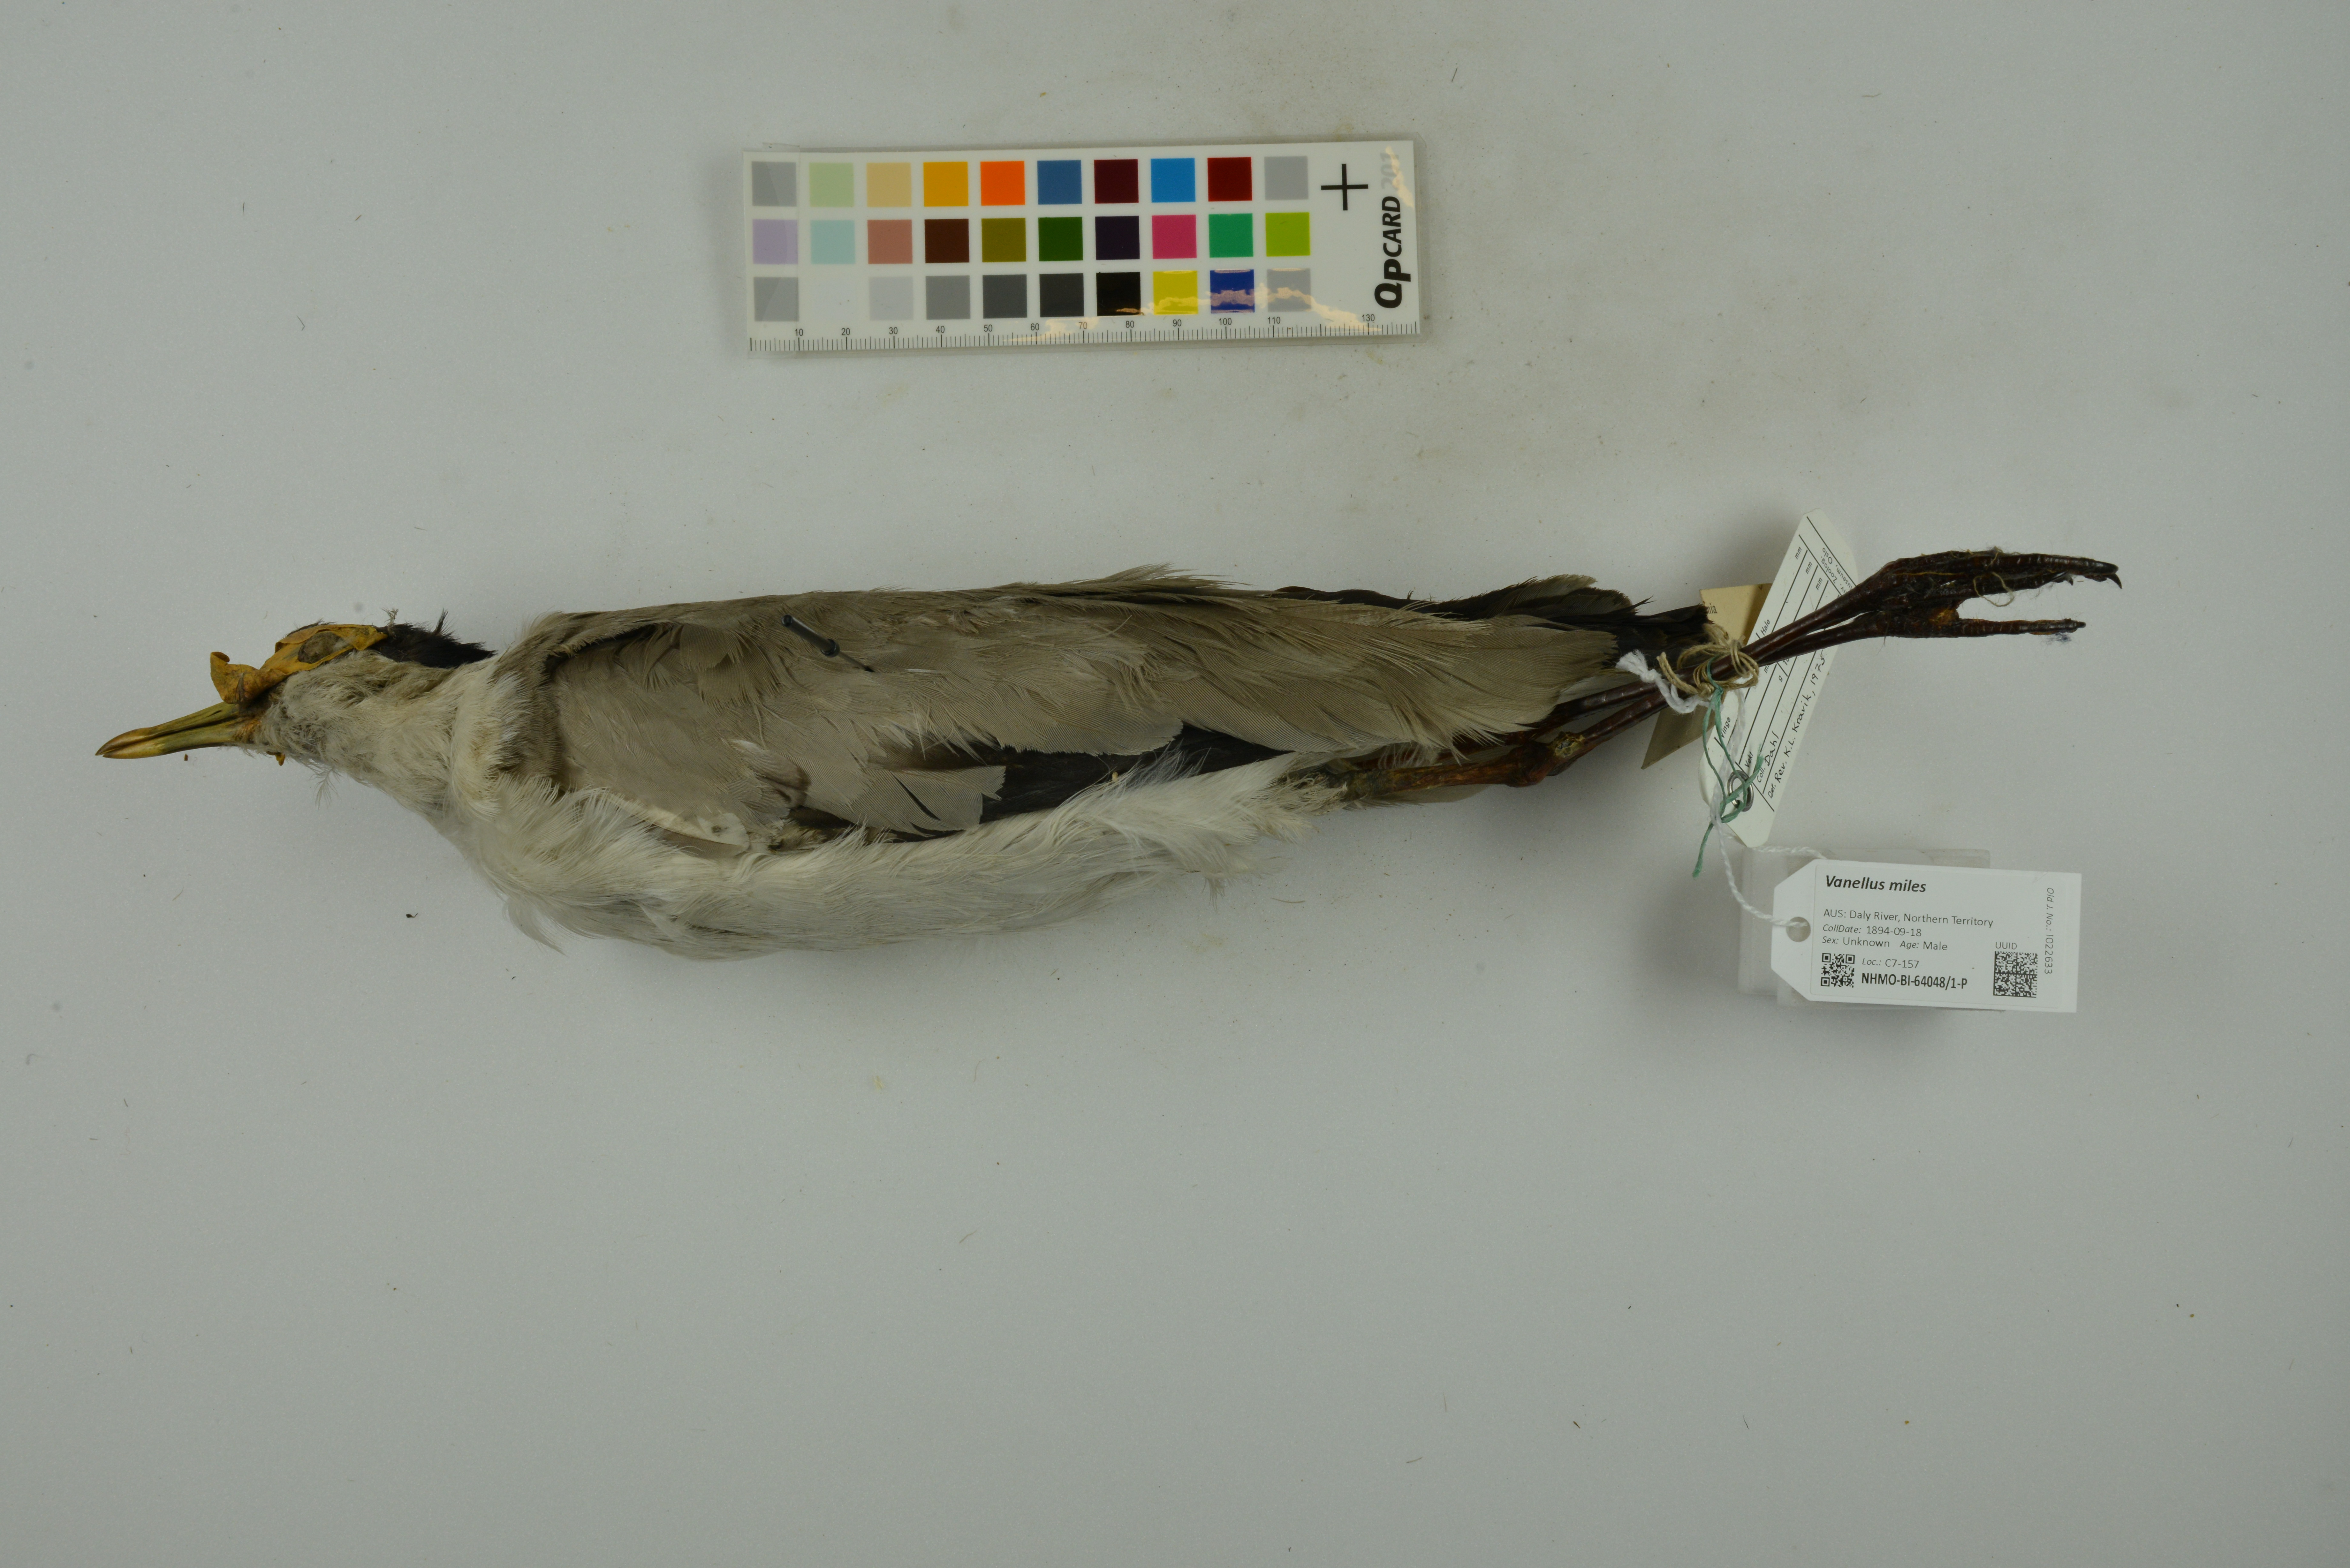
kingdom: Animalia
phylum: Chordata
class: Aves
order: Charadriiformes
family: Charadriidae
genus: Vanellus
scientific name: Vanellus miles
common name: Masked lapwing
